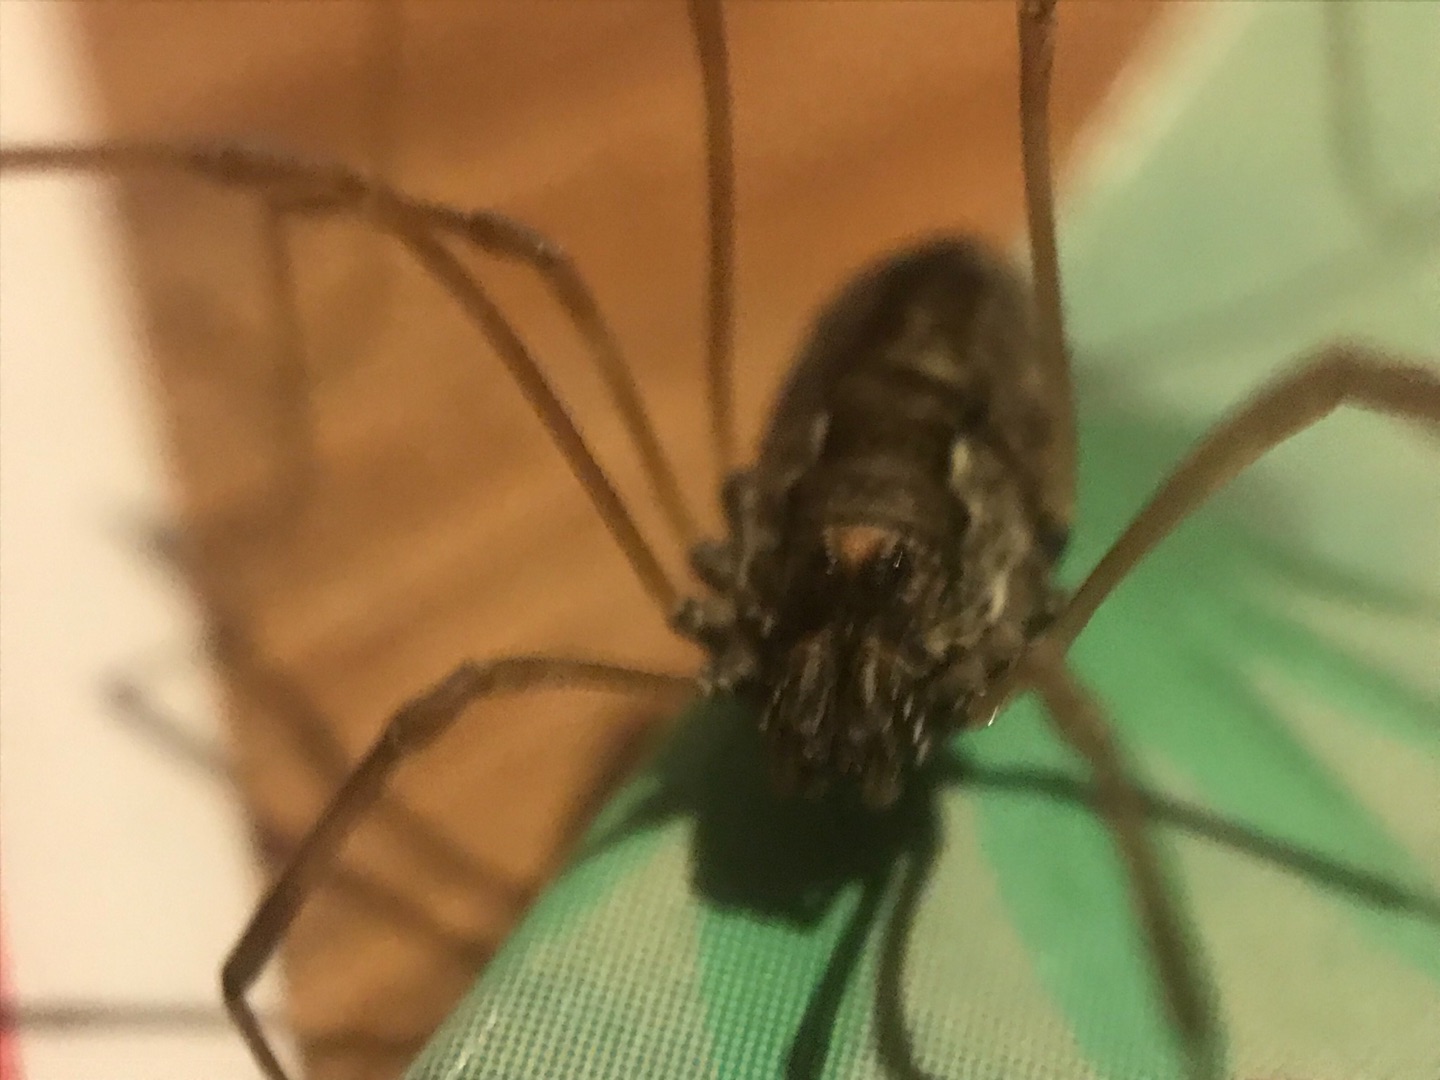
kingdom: Animalia
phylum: Arthropoda
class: Arachnida
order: Opiliones
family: Phalangiidae
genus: Platybunus
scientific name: Platybunus pinetorum
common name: Storøjet mejer
